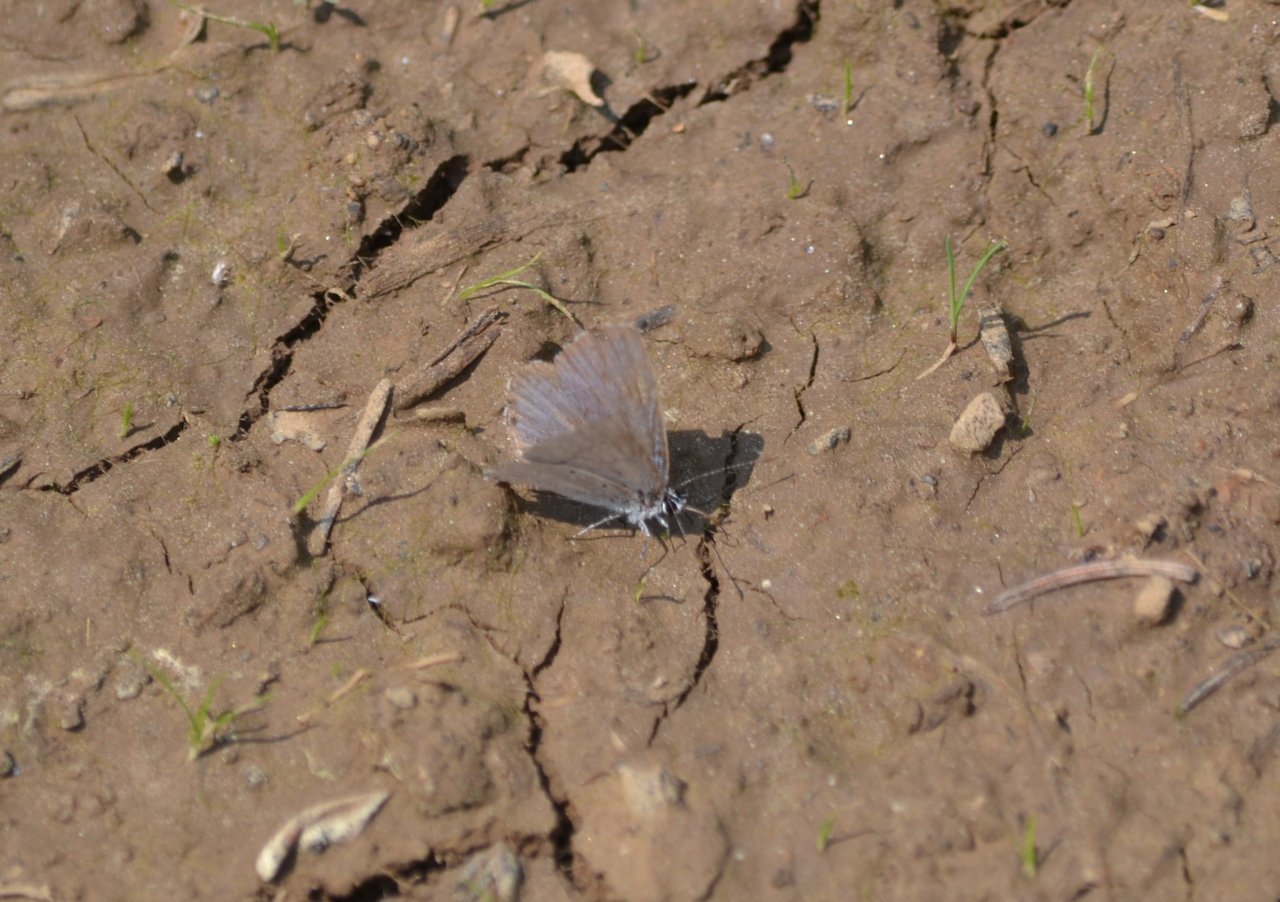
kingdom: Animalia
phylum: Arthropoda
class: Insecta
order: Lepidoptera
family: Lycaenidae
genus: Celastrina
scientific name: Celastrina lucia
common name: Northern Spring Azure
